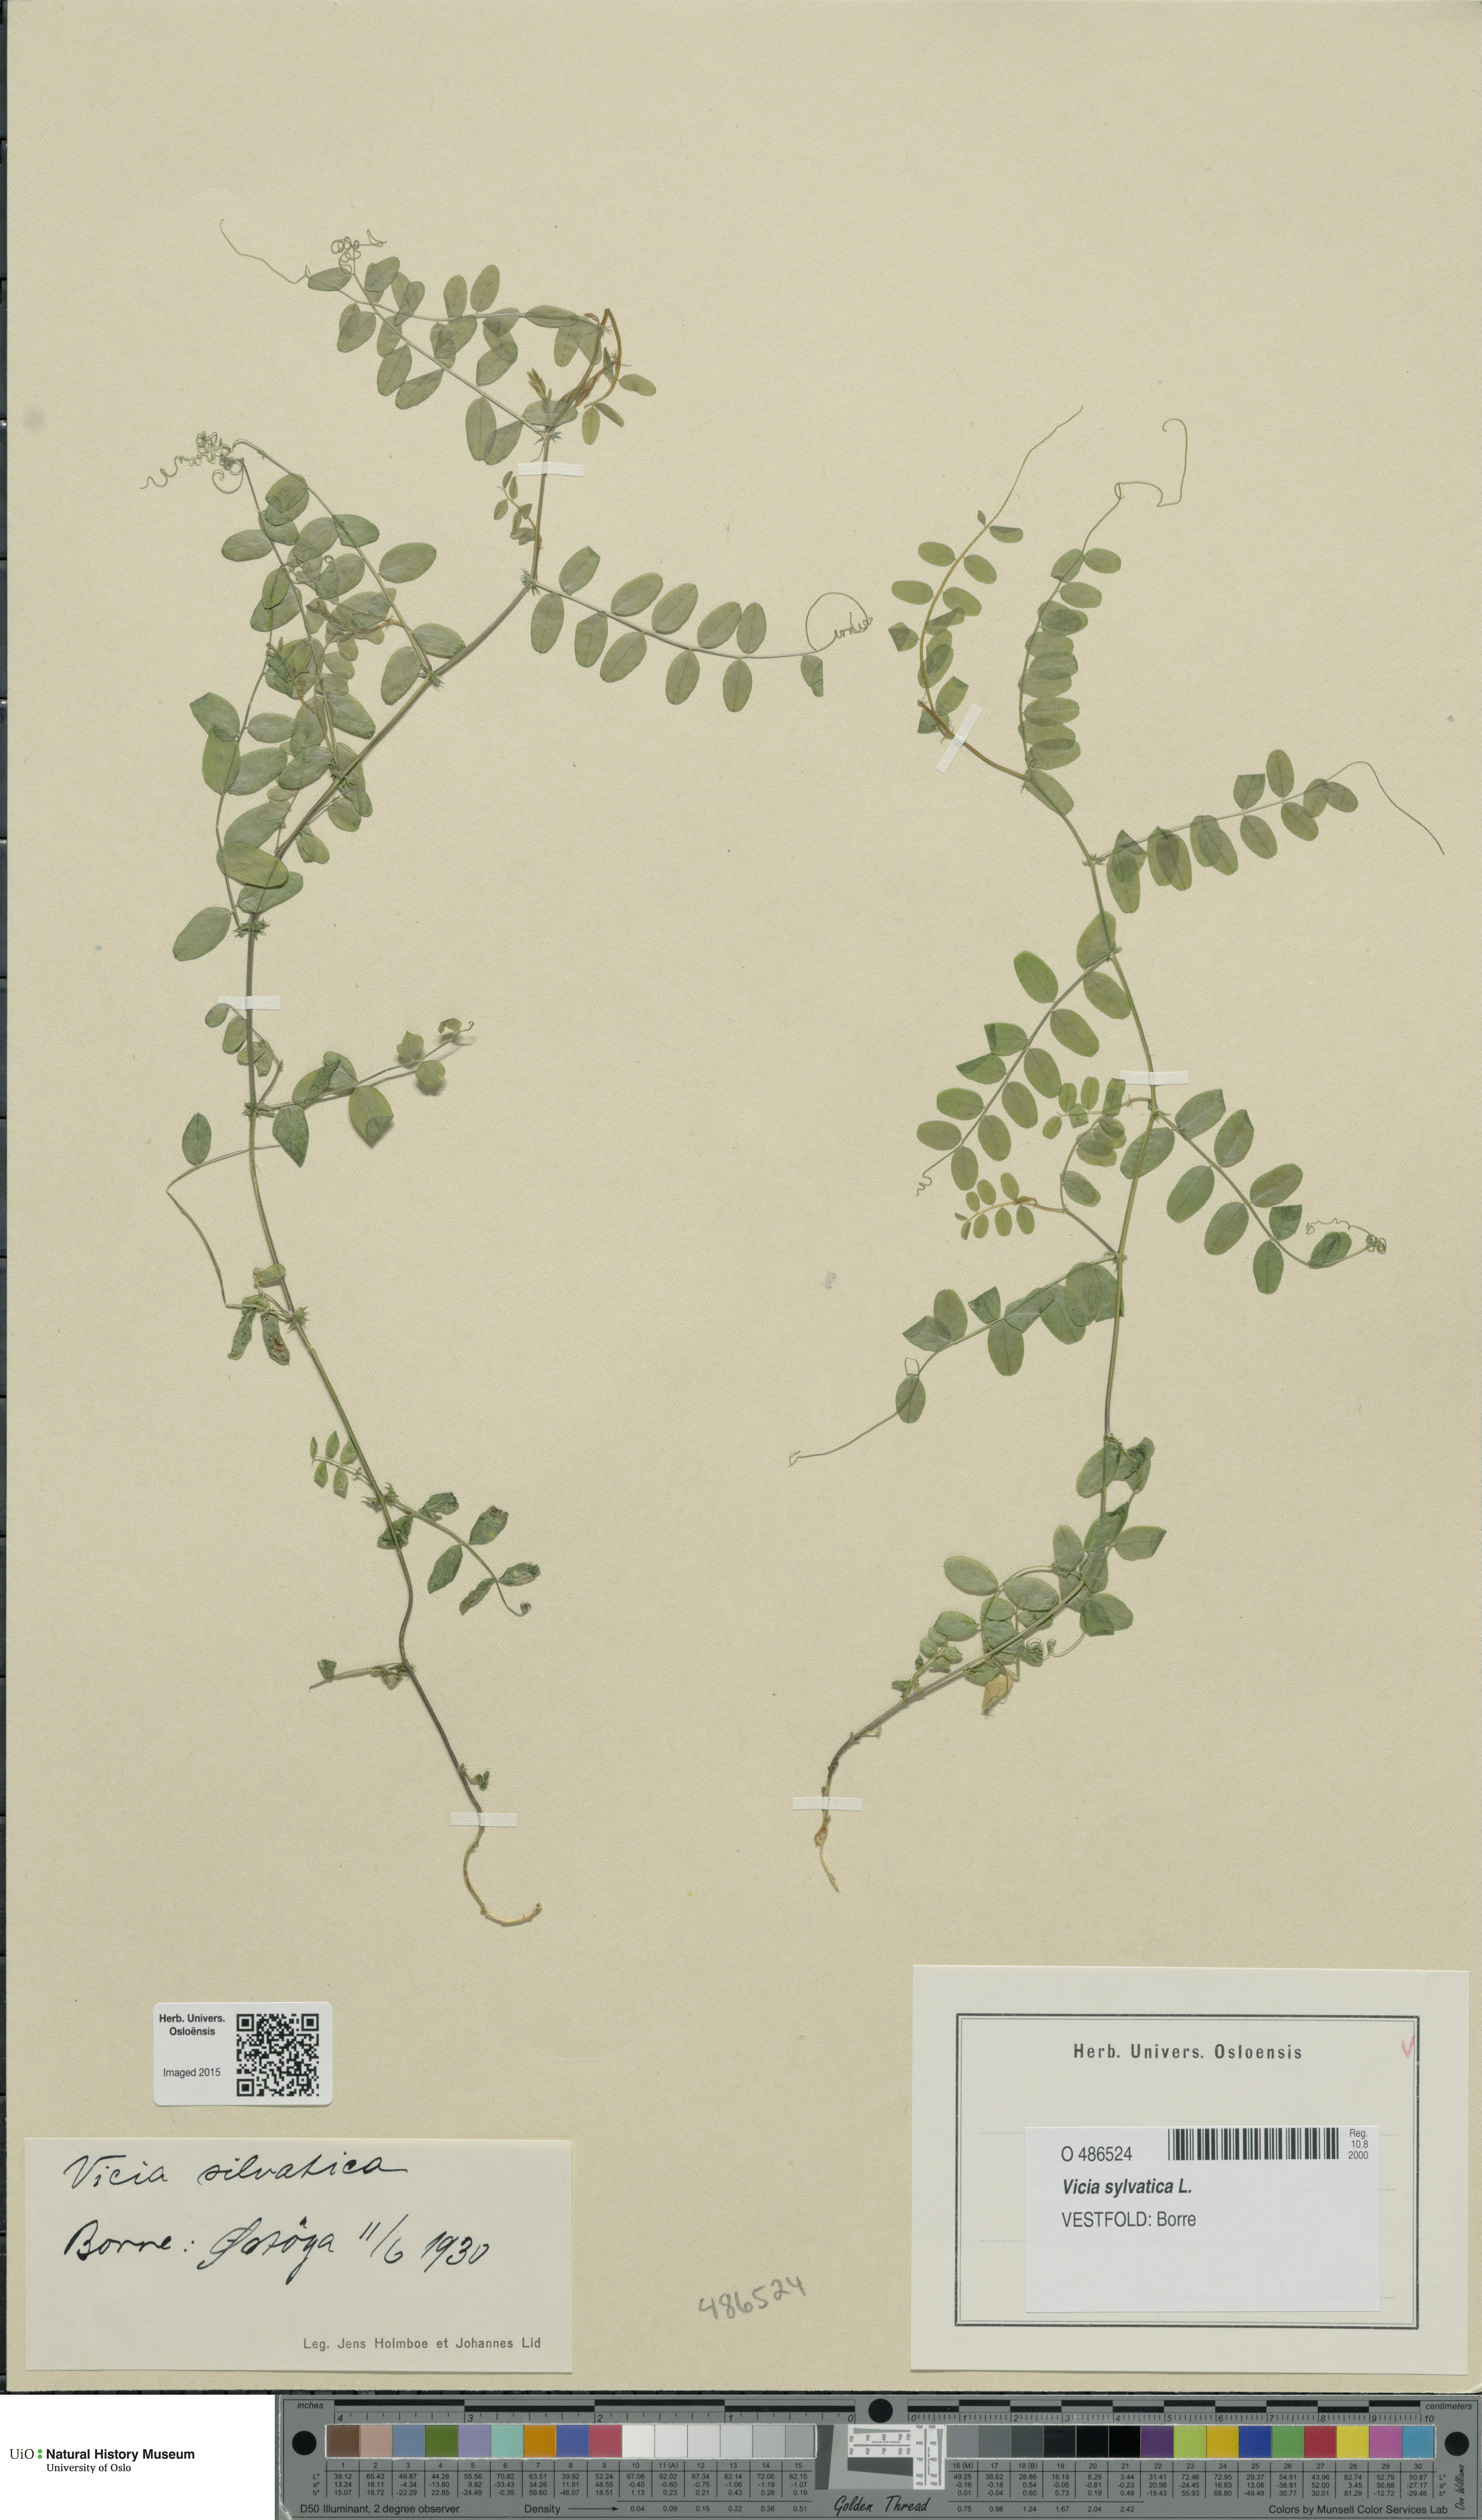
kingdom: Plantae
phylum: Tracheophyta
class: Magnoliopsida
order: Fabales
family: Fabaceae
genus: Vicia
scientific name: Vicia sylvatica
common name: Wood vetch
